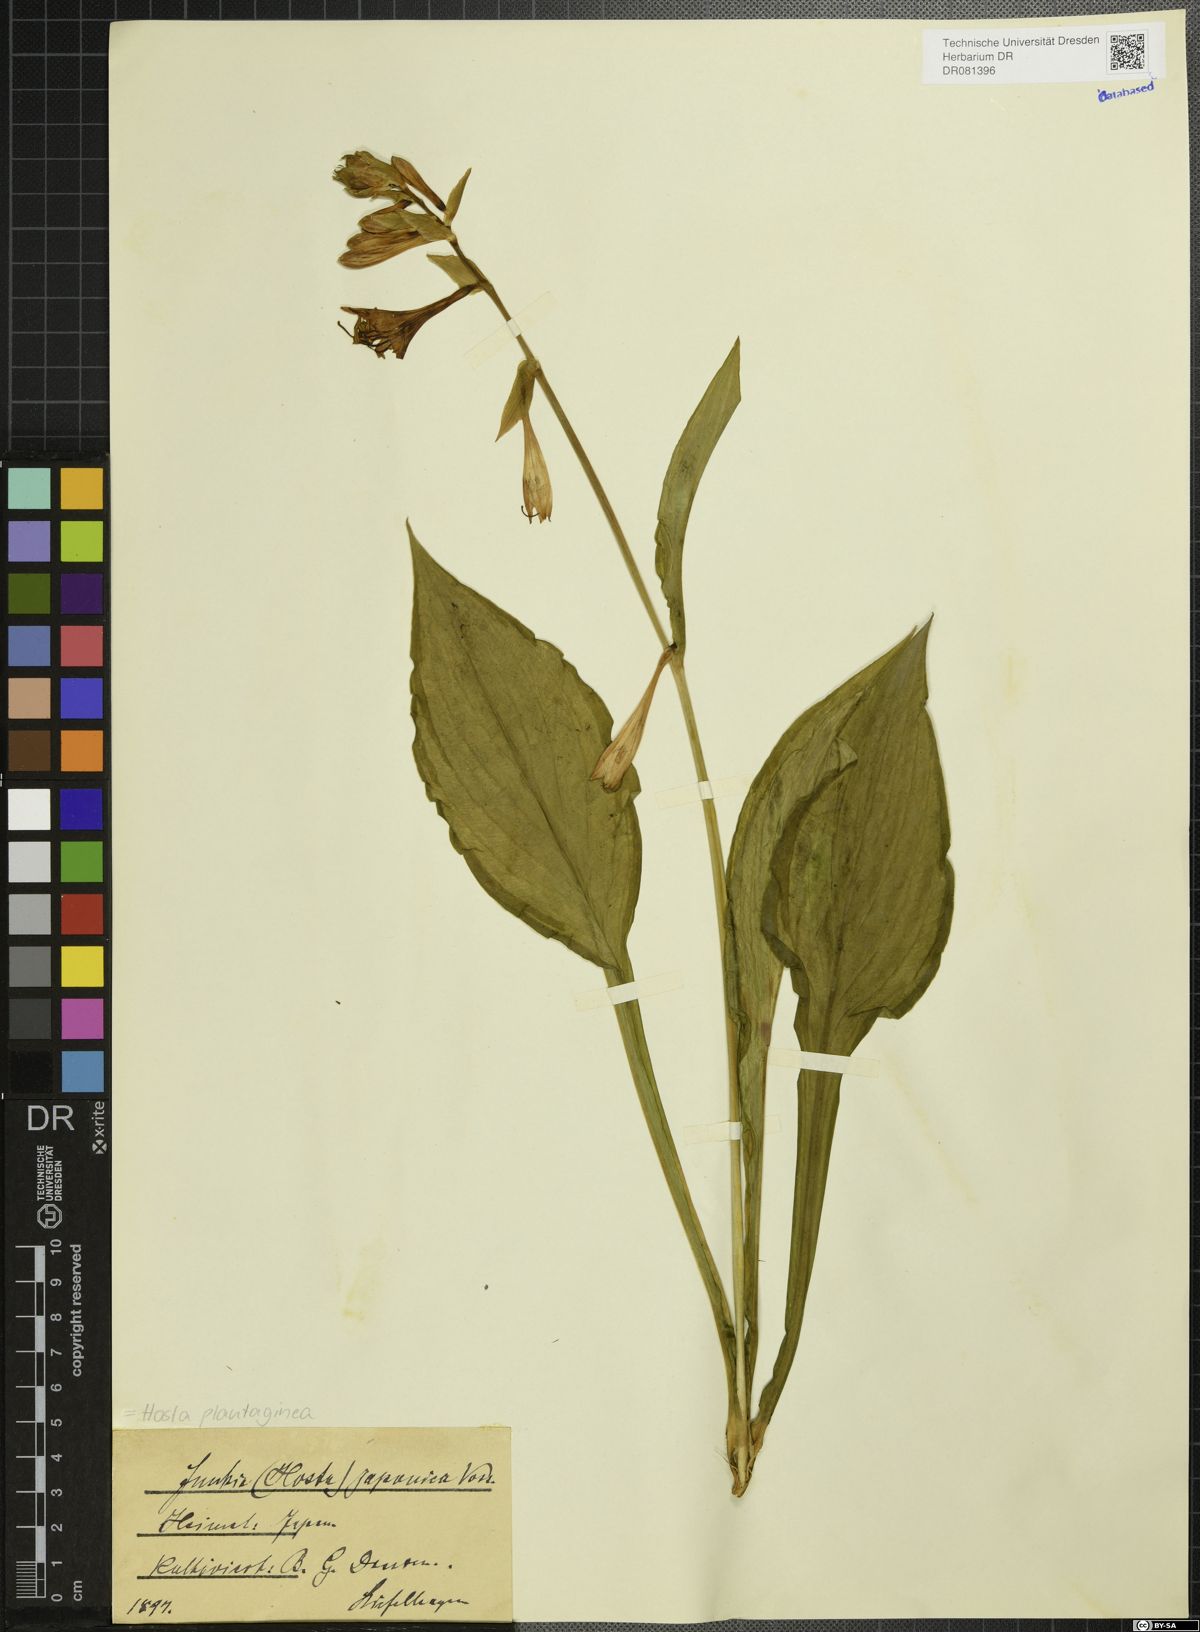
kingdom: Plantae
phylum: Tracheophyta
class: Liliopsida
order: Asparagales
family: Asparagaceae
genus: Hosta
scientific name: Hosta plantaginea
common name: August-lily
